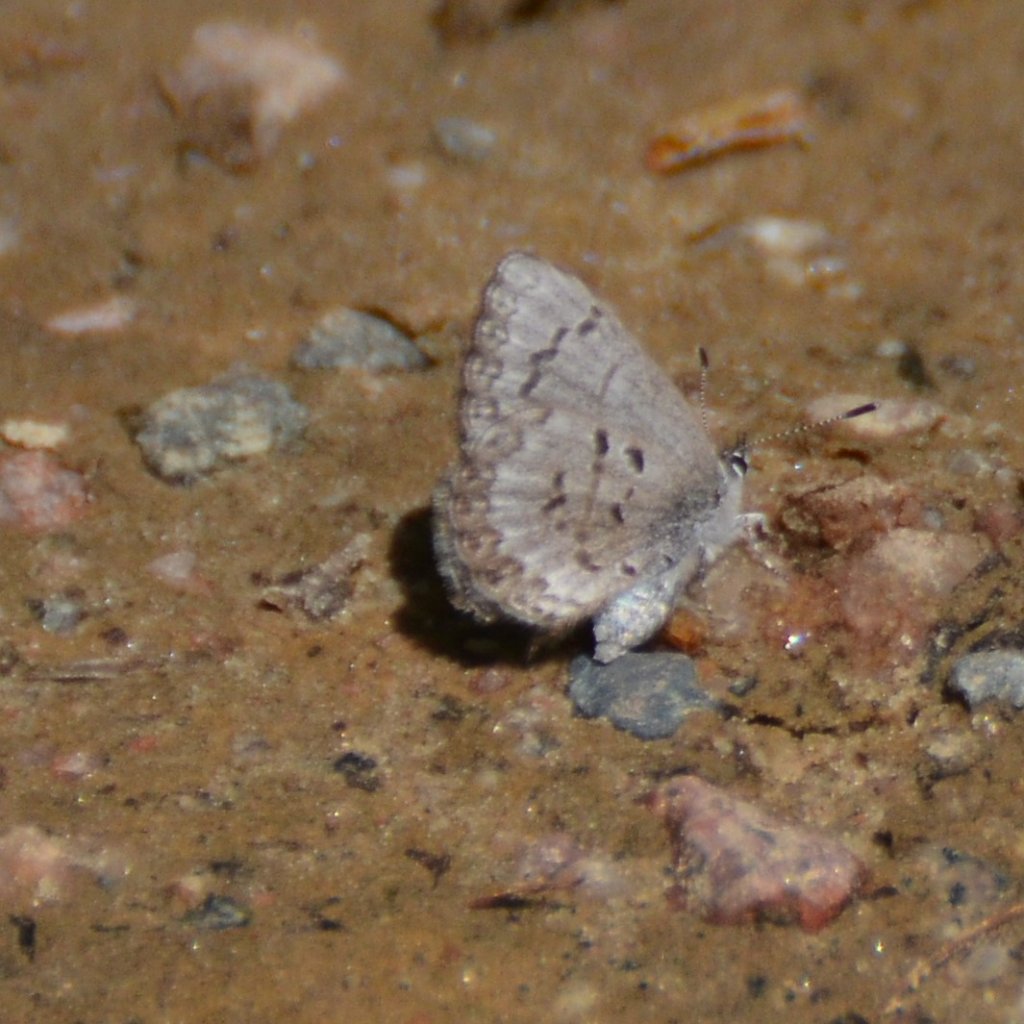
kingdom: Animalia
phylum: Arthropoda
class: Insecta
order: Lepidoptera
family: Lycaenidae
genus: Celastrina
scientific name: Celastrina lucia
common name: Northern Spring Azure
